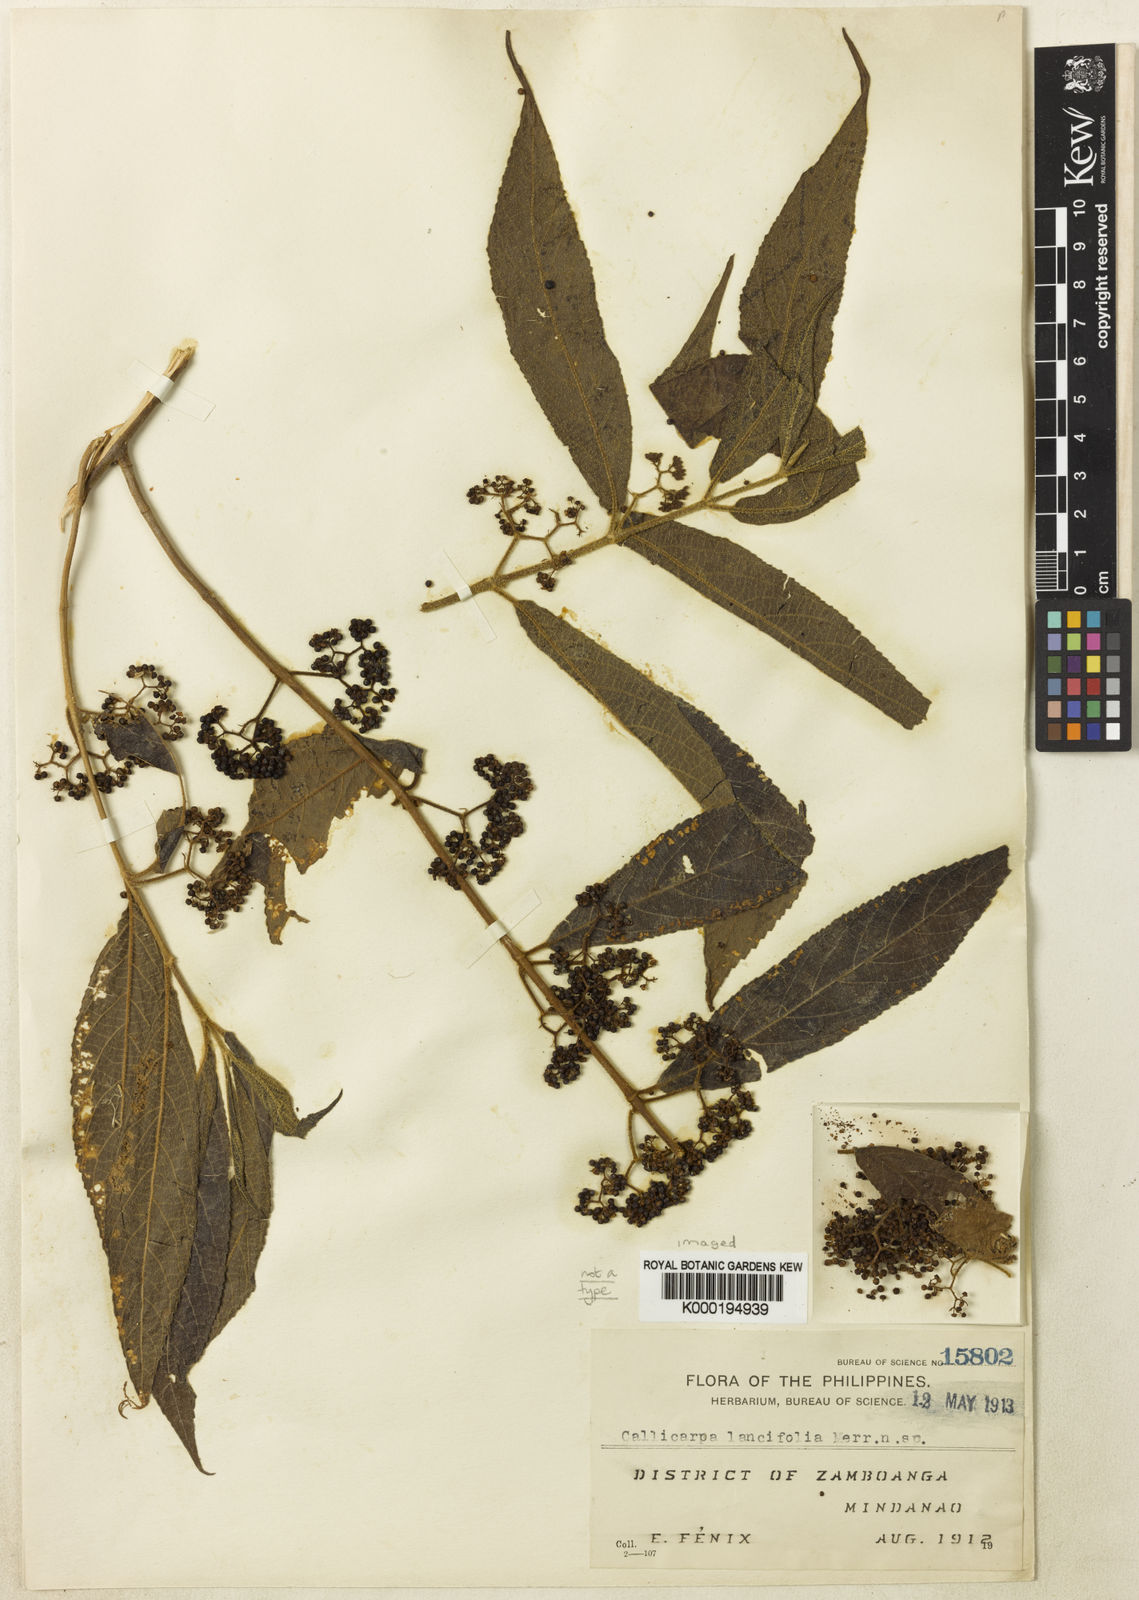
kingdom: Plantae
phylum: Tracheophyta
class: Magnoliopsida
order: Lamiales
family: Lamiaceae
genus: Callicarpa
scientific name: Callicarpa pedunculata
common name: Velvetleaf
